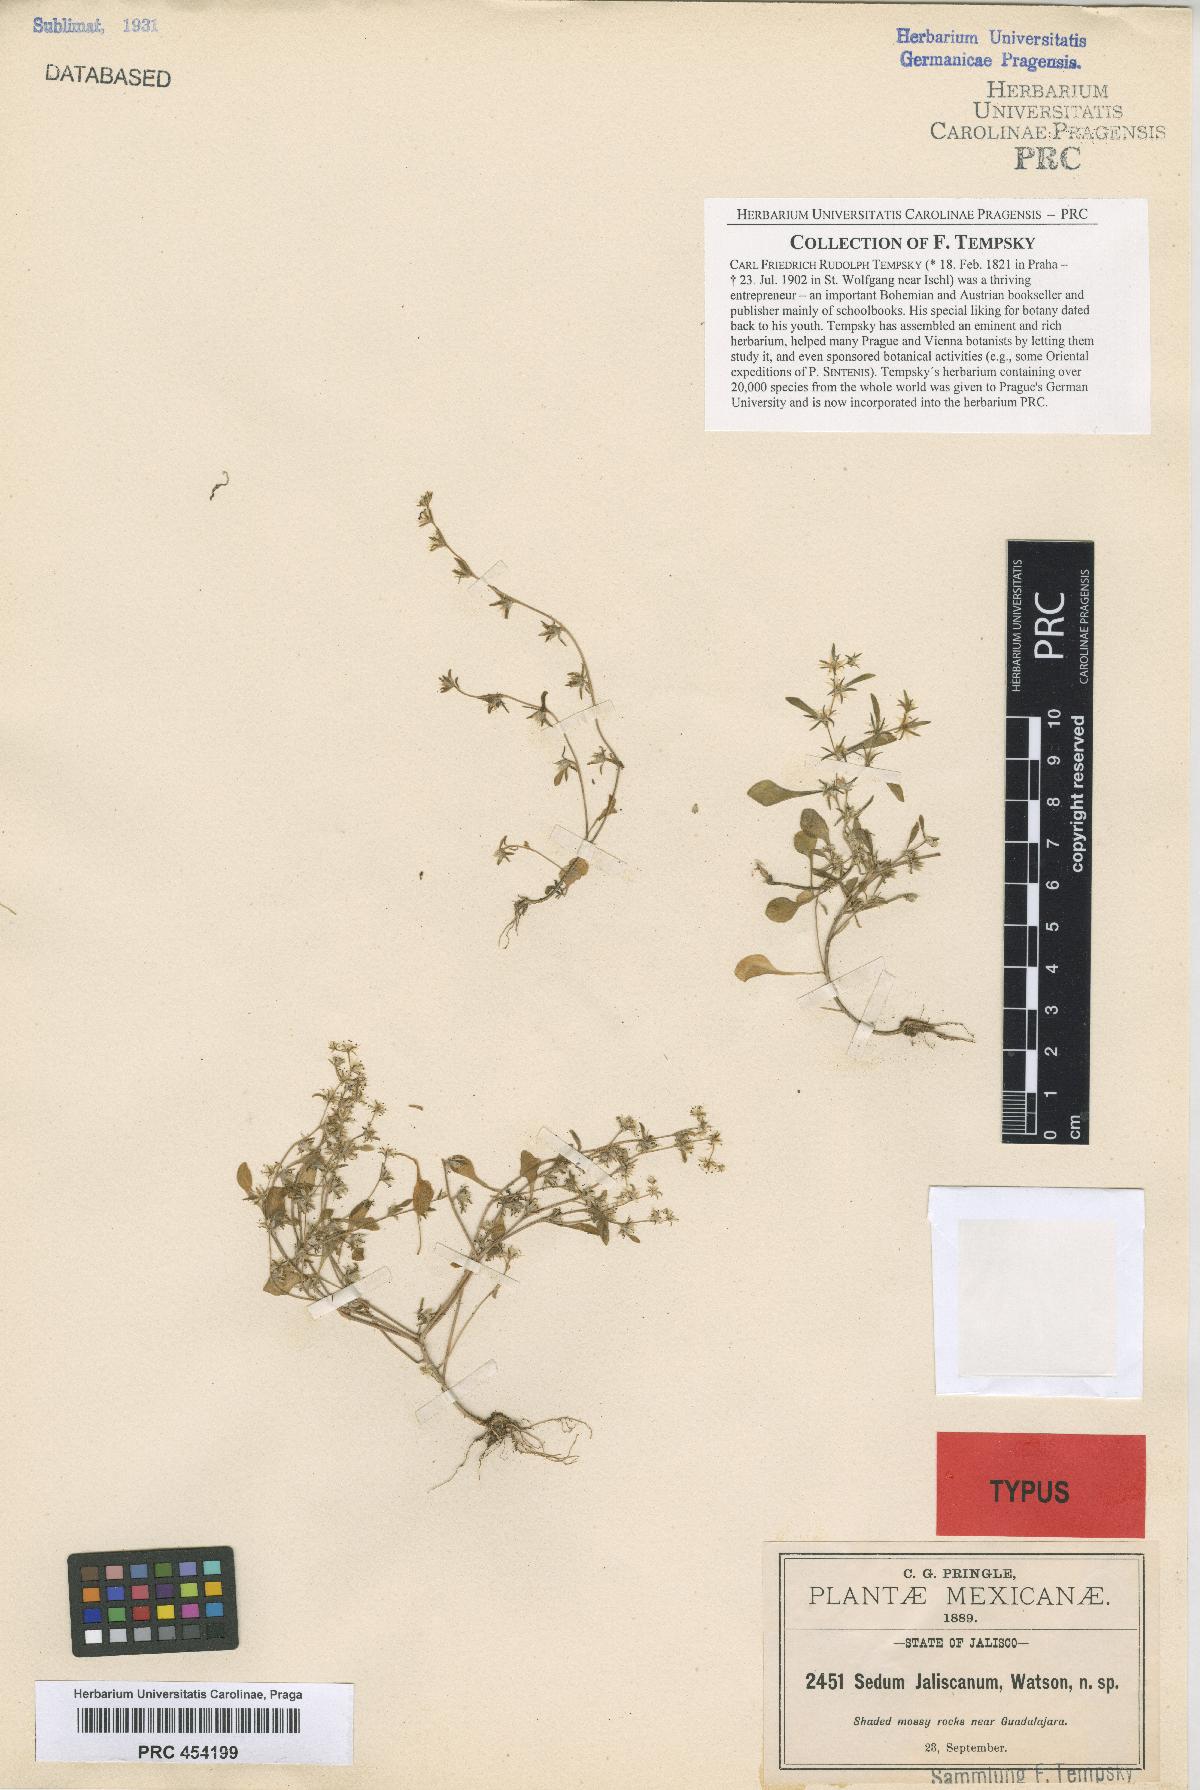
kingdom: Plantae
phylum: Tracheophyta
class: Magnoliopsida
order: Saxifragales
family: Crassulaceae
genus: Sedum
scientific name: Sedum jaliscanum
